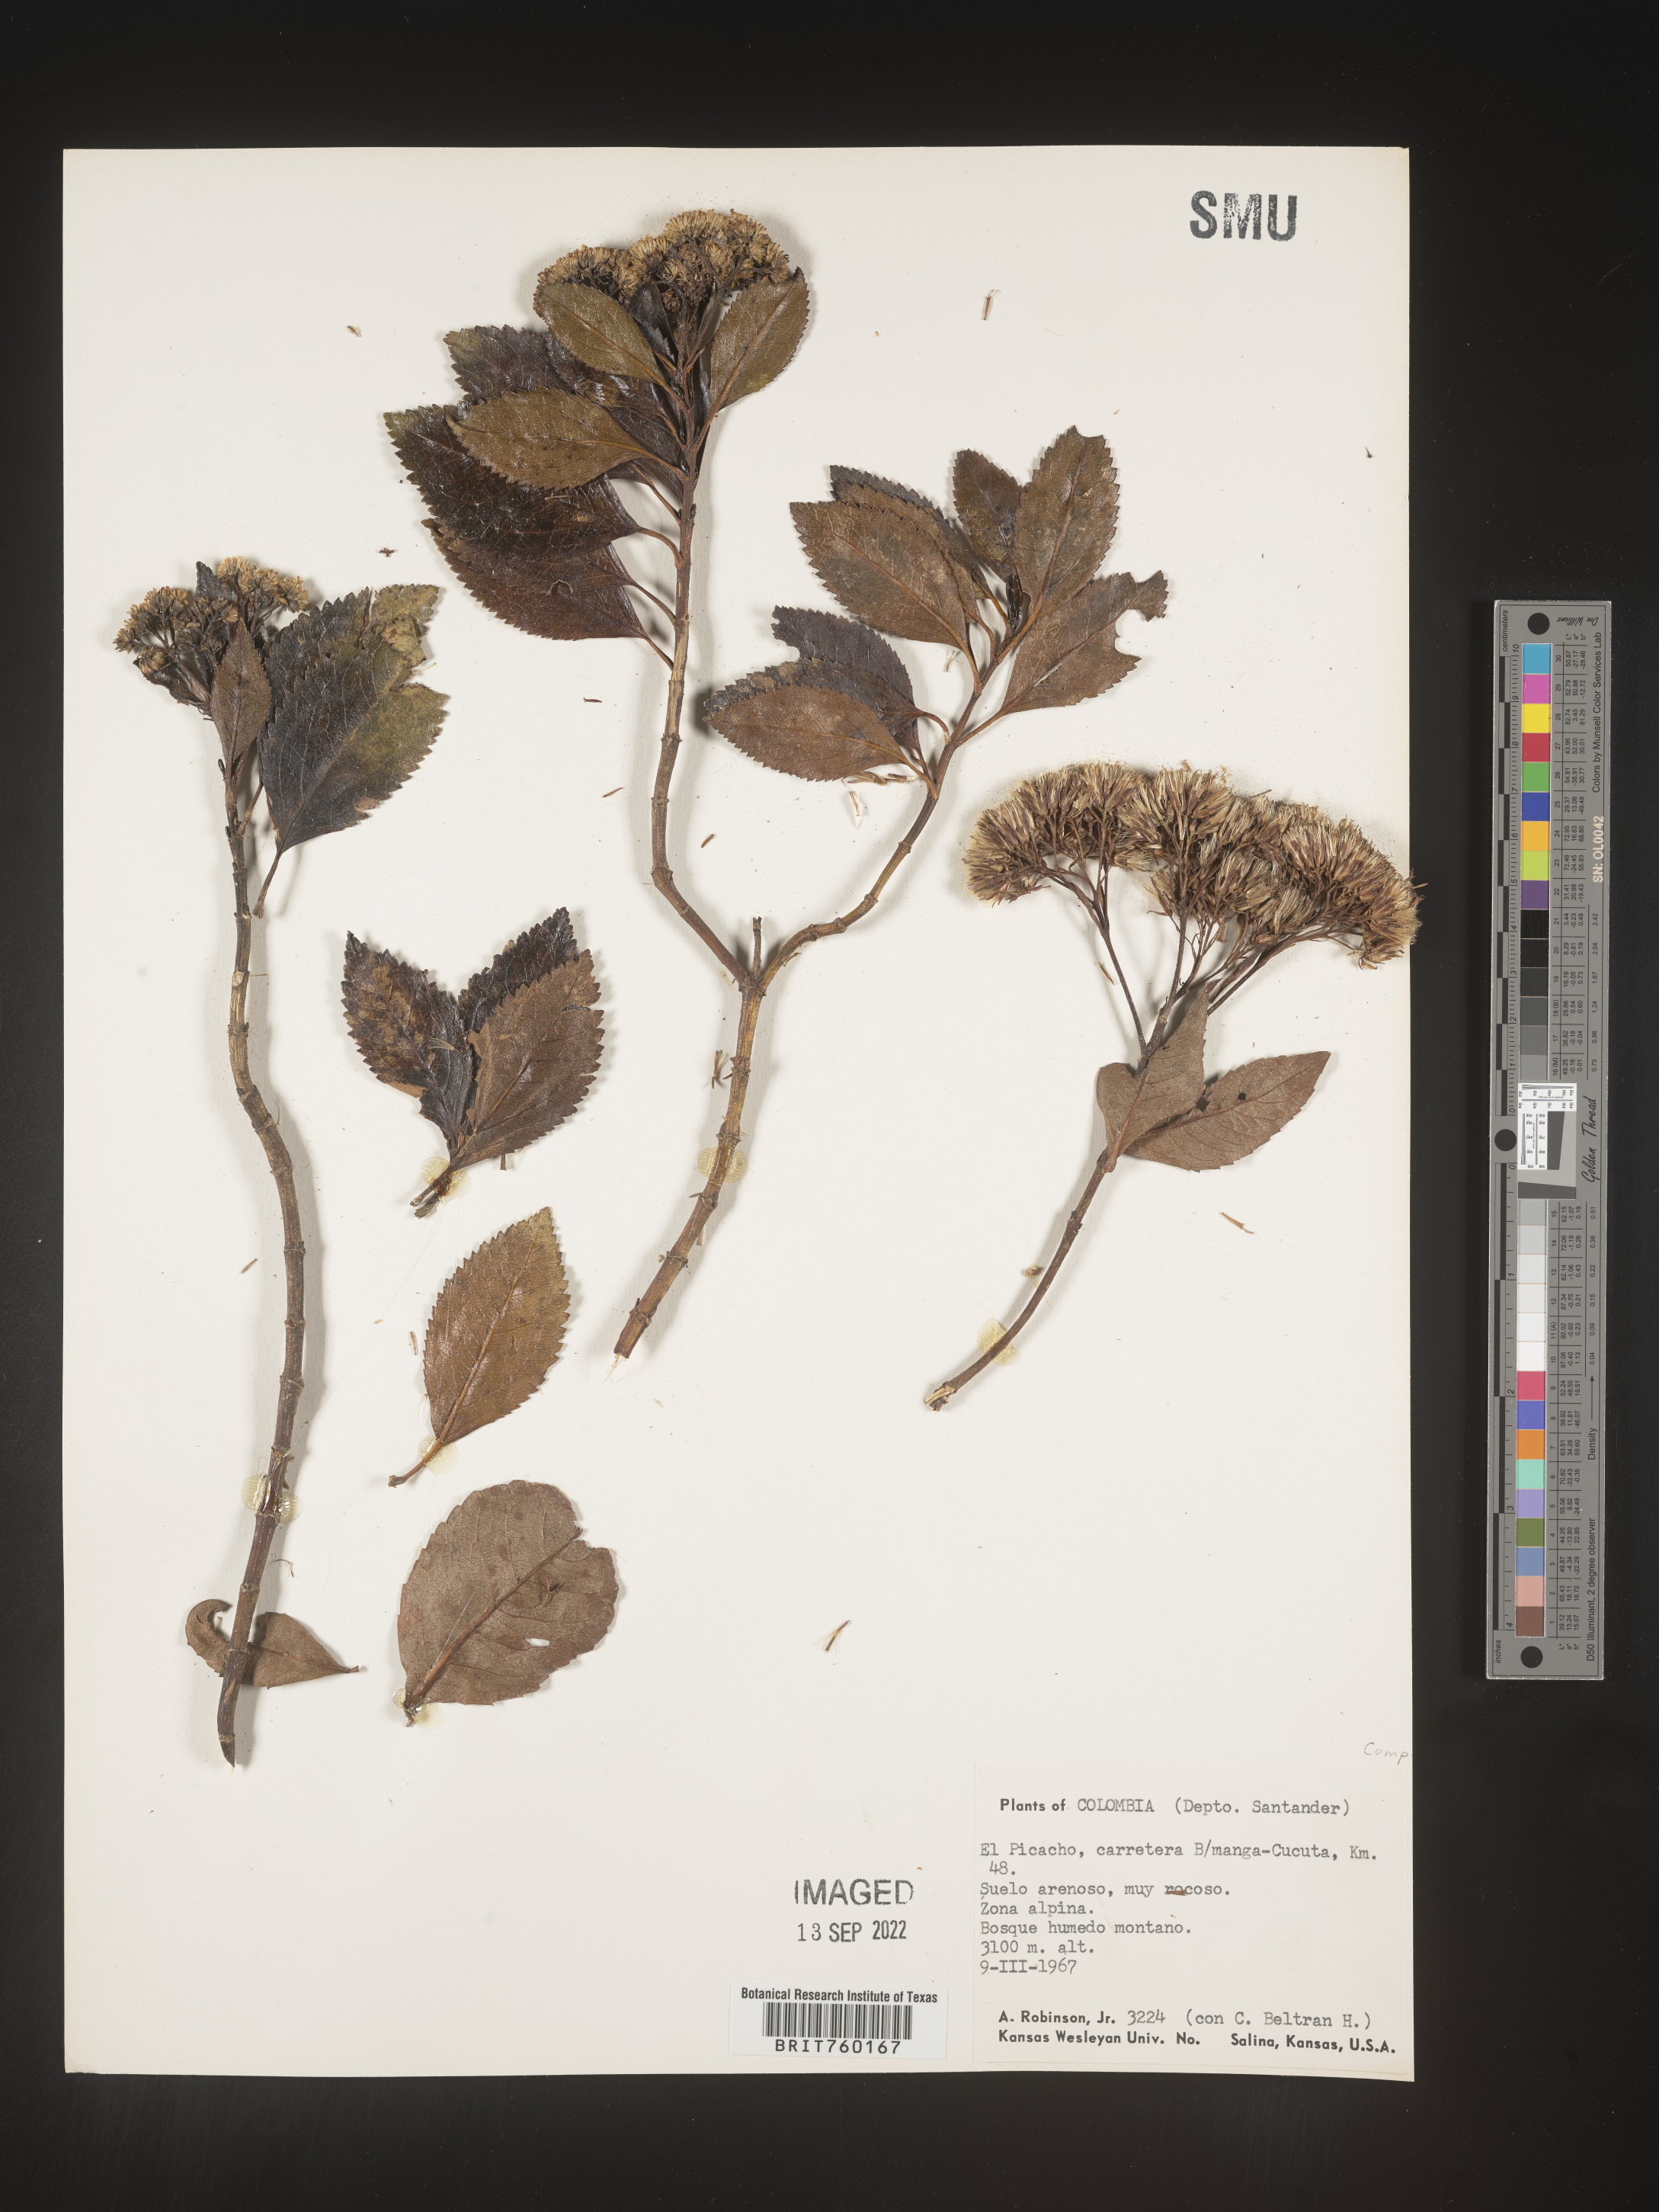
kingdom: Plantae
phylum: Tracheophyta
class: Magnoliopsida
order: Asterales
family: Asteraceae
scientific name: Asteraceae
